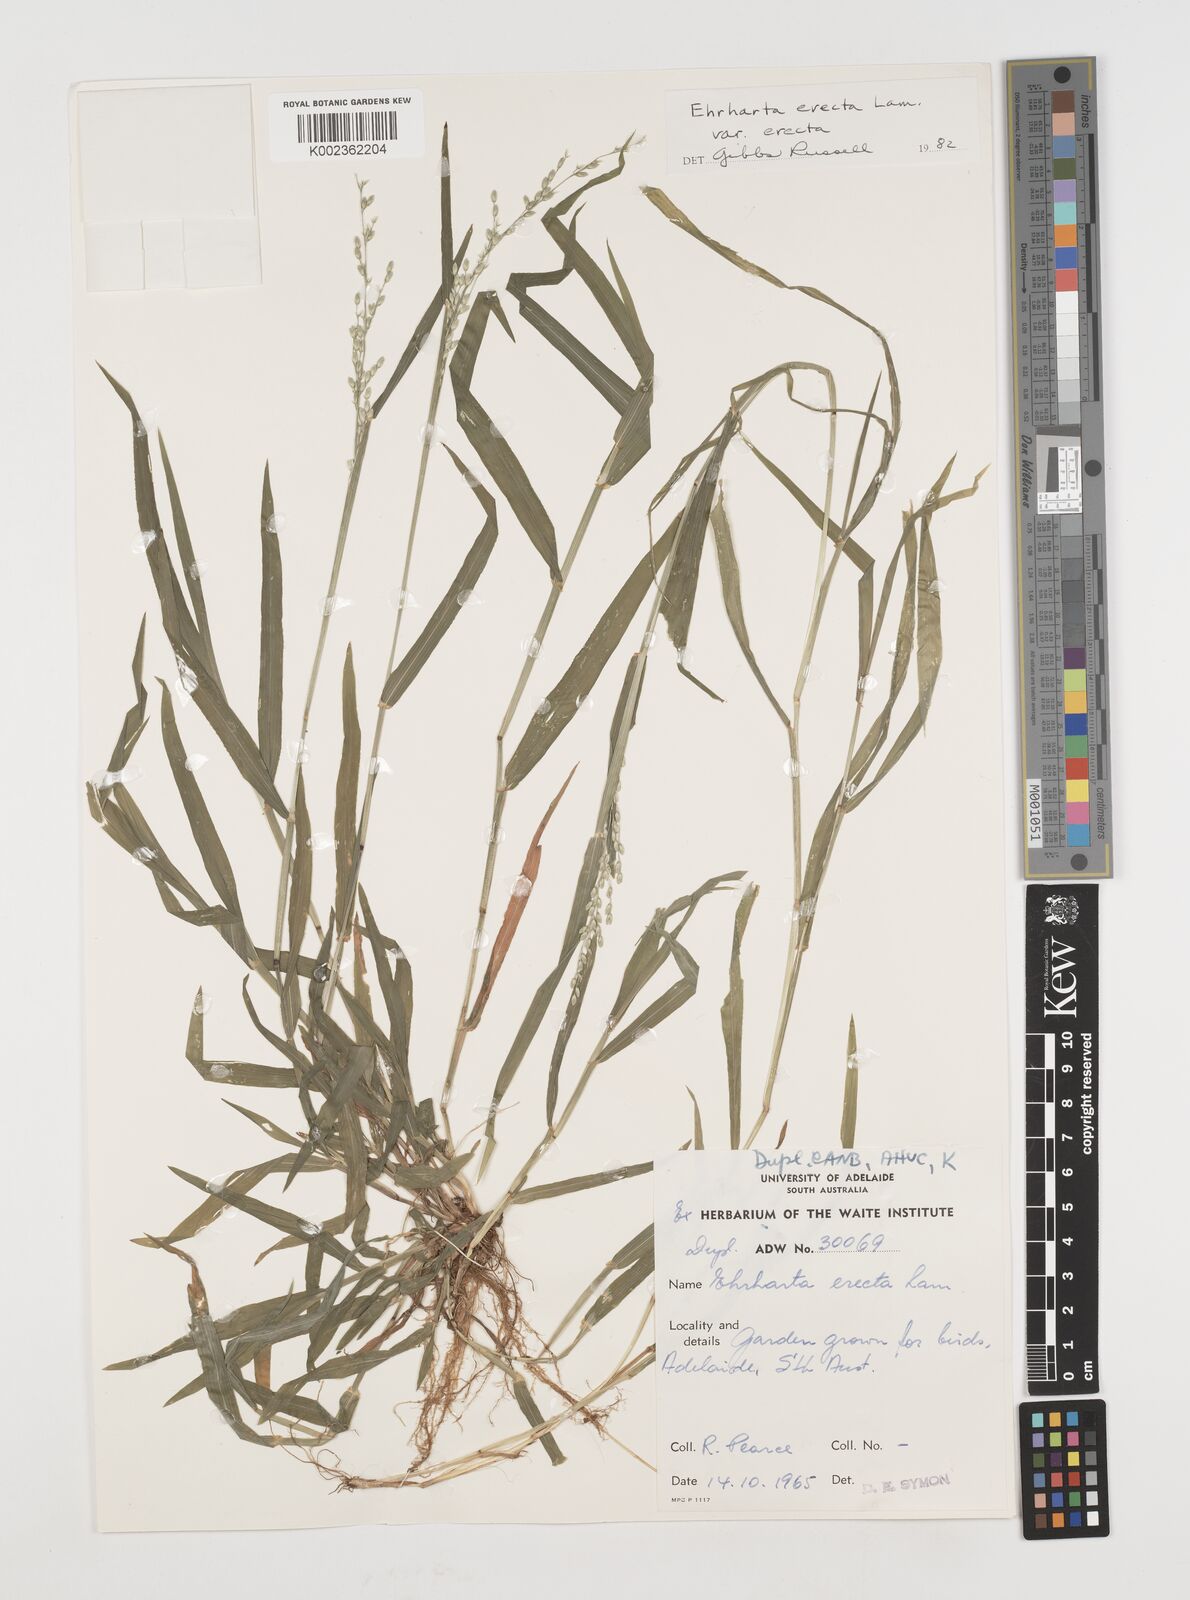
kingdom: Plantae
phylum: Tracheophyta
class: Liliopsida
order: Poales
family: Poaceae
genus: Ehrharta
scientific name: Ehrharta erecta
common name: Panic veldtgrass
